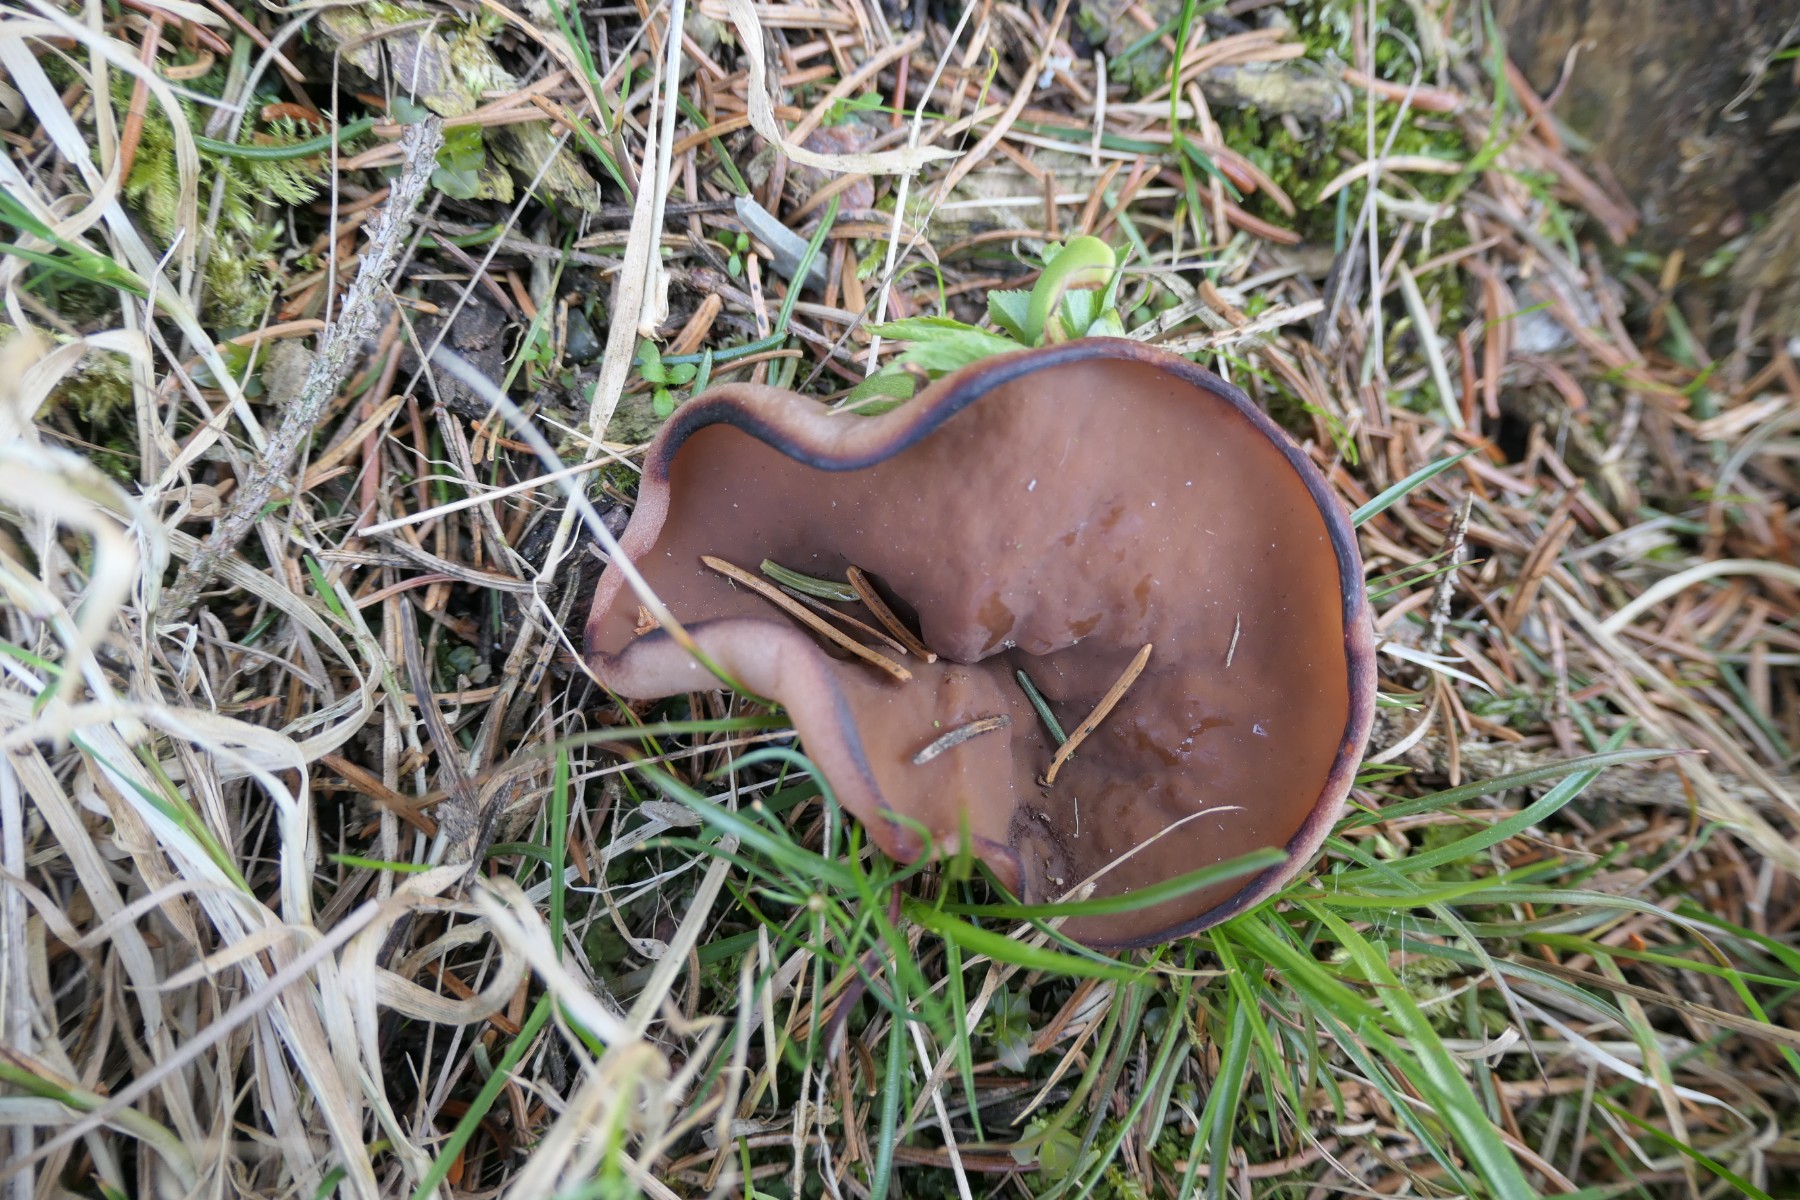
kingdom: Fungi
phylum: Ascomycota
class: Pezizomycetes
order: Pezizales
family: Discinaceae
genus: Discina
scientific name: Discina ancilis
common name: udbredt stenmorkel
